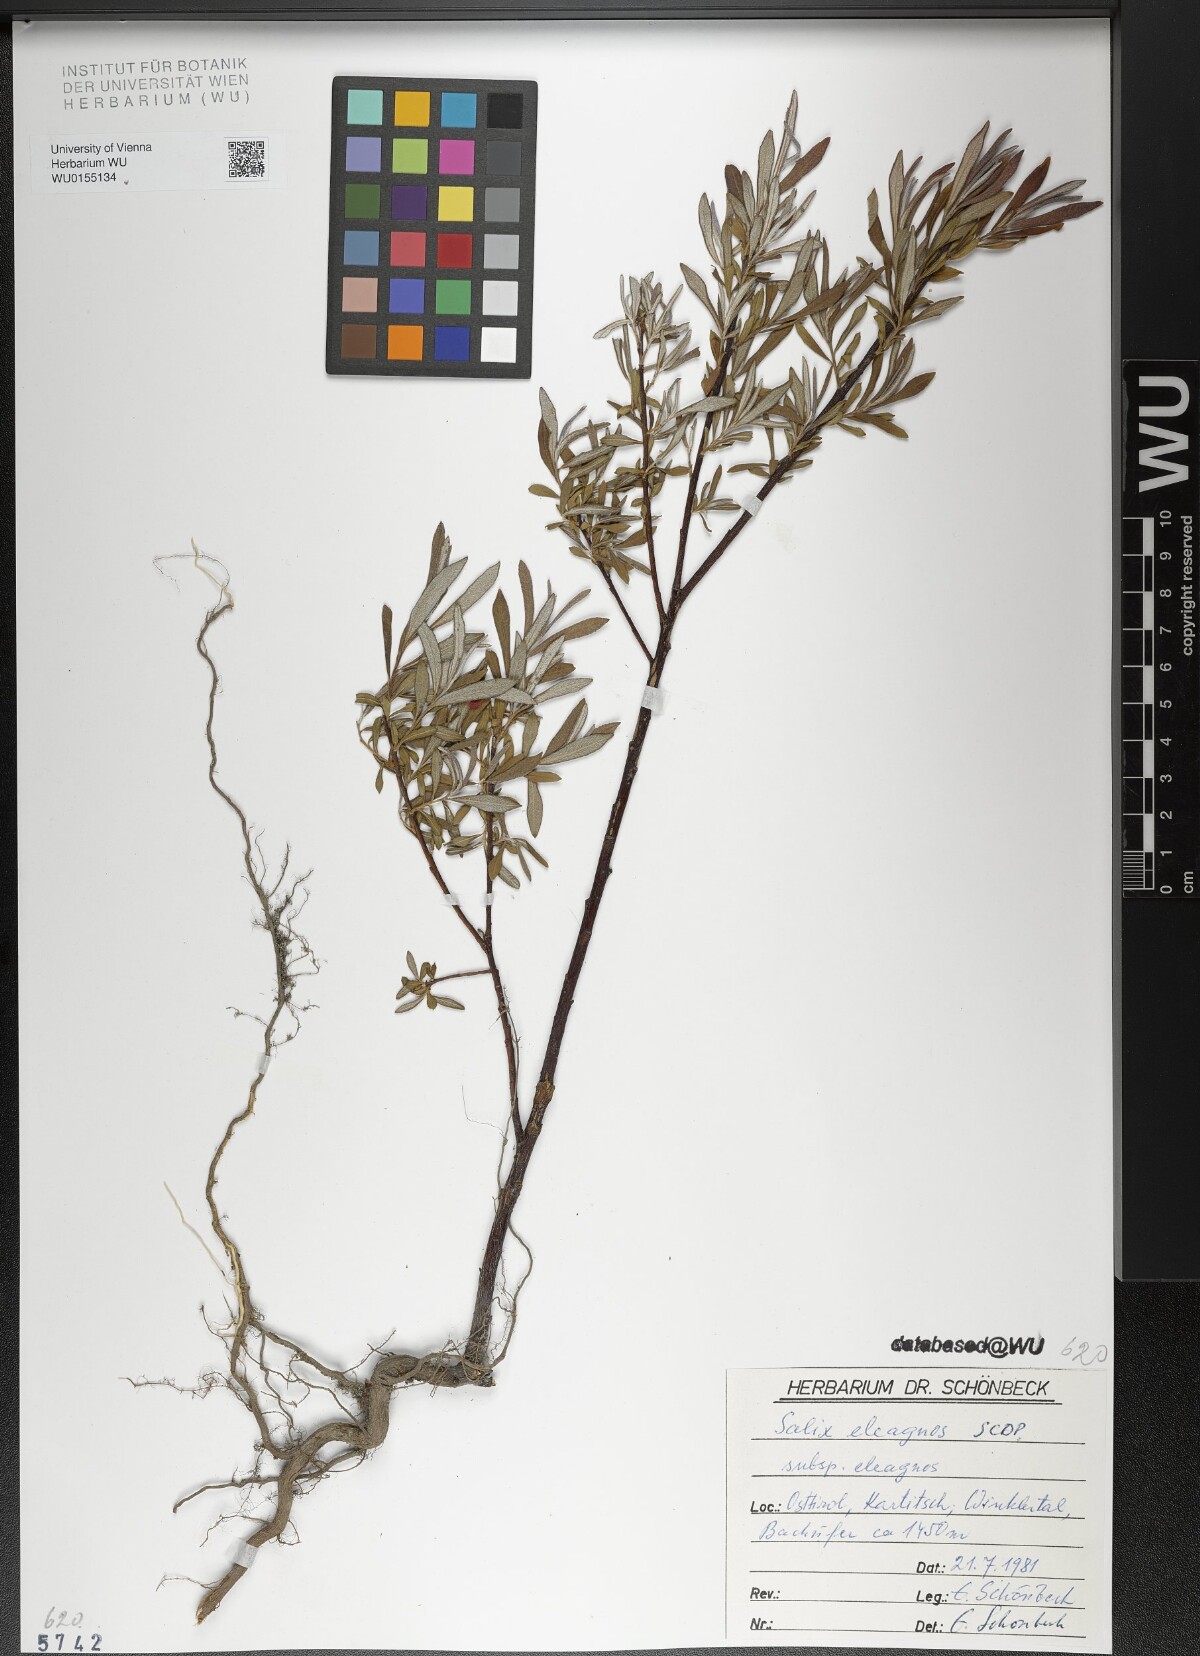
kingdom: Plantae
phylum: Tracheophyta
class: Magnoliopsida
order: Malpighiales
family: Salicaceae
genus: Salix
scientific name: Salix eleagnos
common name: Elaeagnus willow
